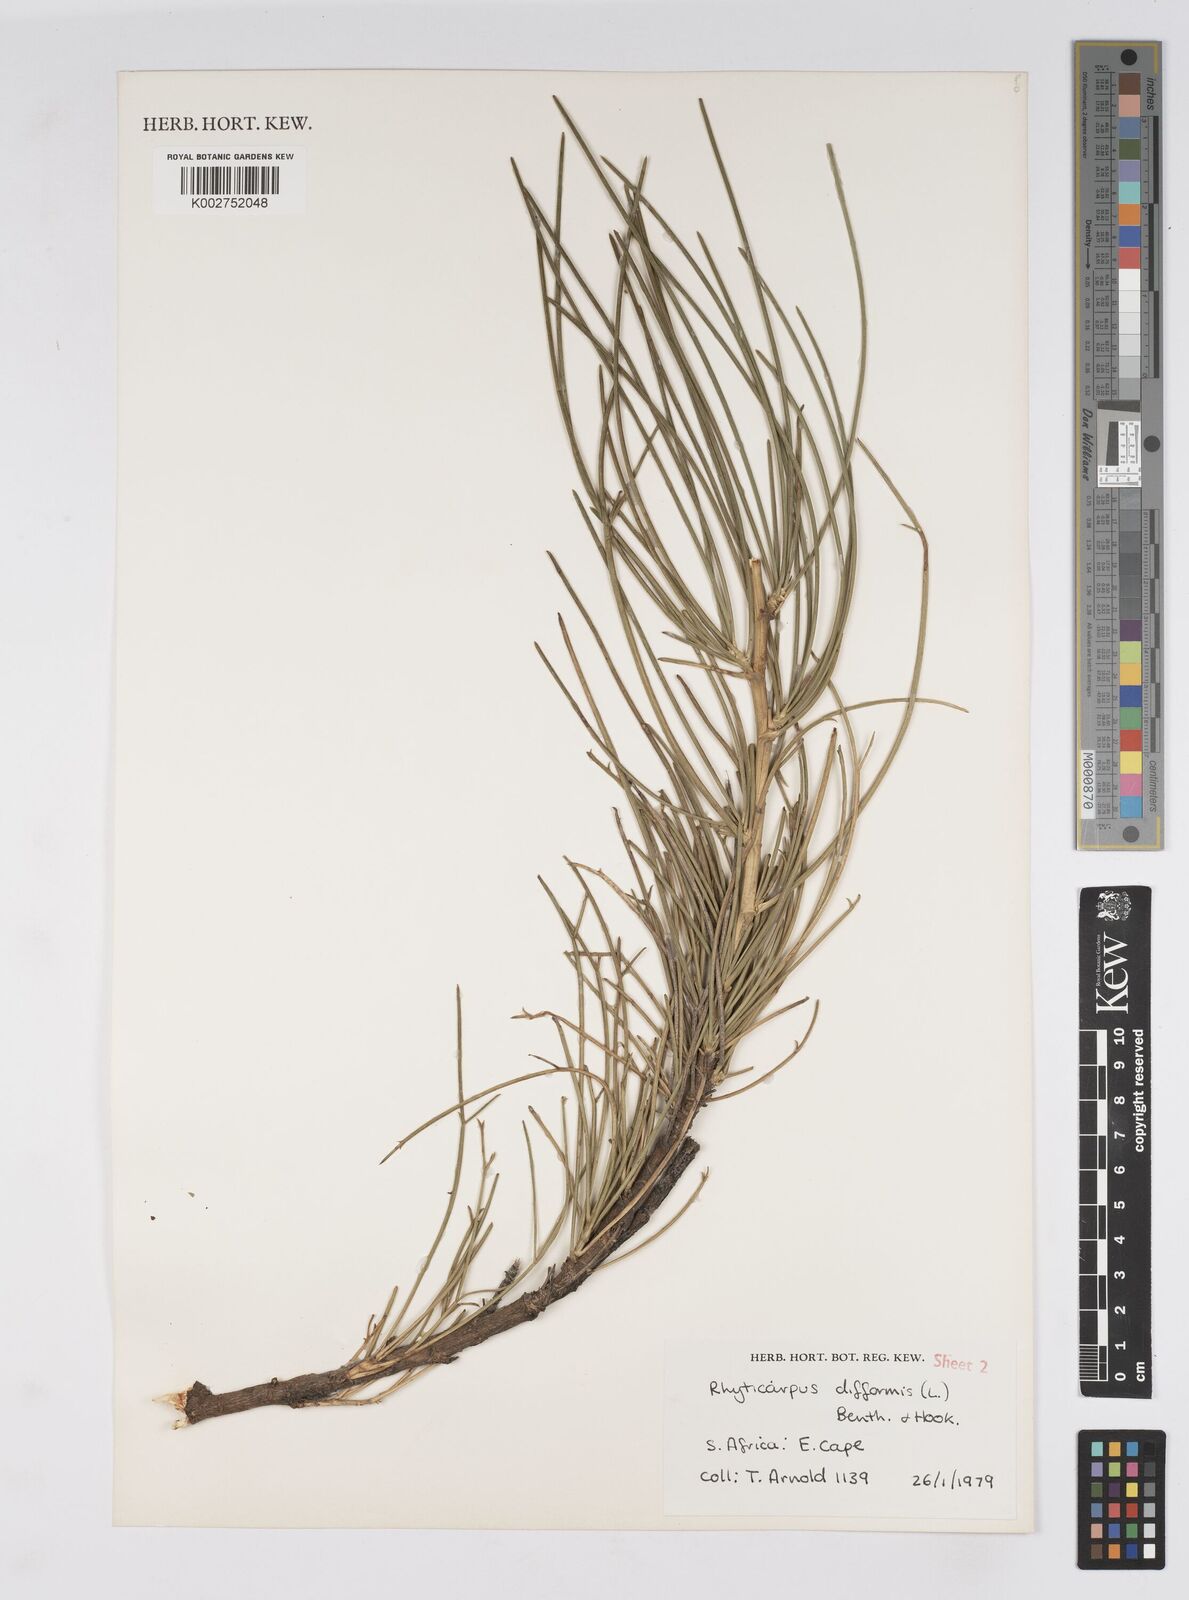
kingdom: Plantae
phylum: Tracheophyta
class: Magnoliopsida
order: Apiales
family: Apiaceae
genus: Anginon
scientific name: Anginon fruticosum
